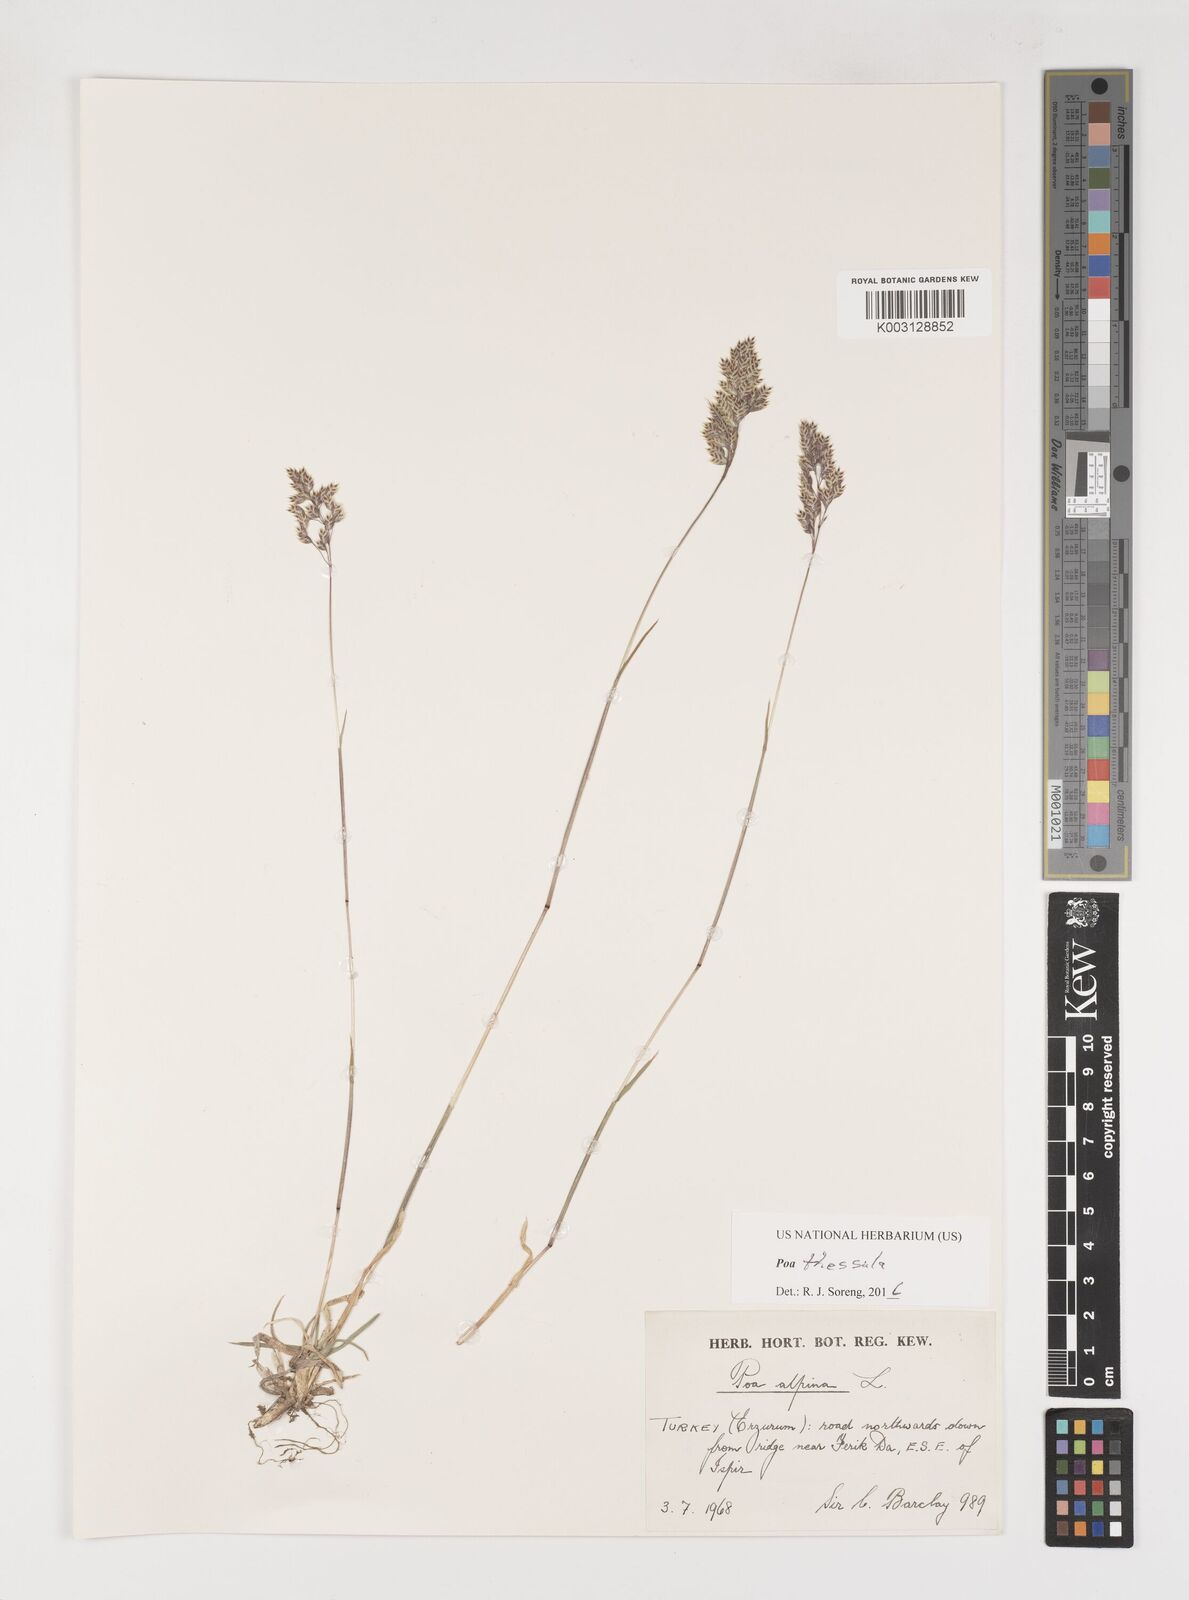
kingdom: Plantae
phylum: Tracheophyta
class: Liliopsida
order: Poales
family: Poaceae
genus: Poa
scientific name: Poa thessala
